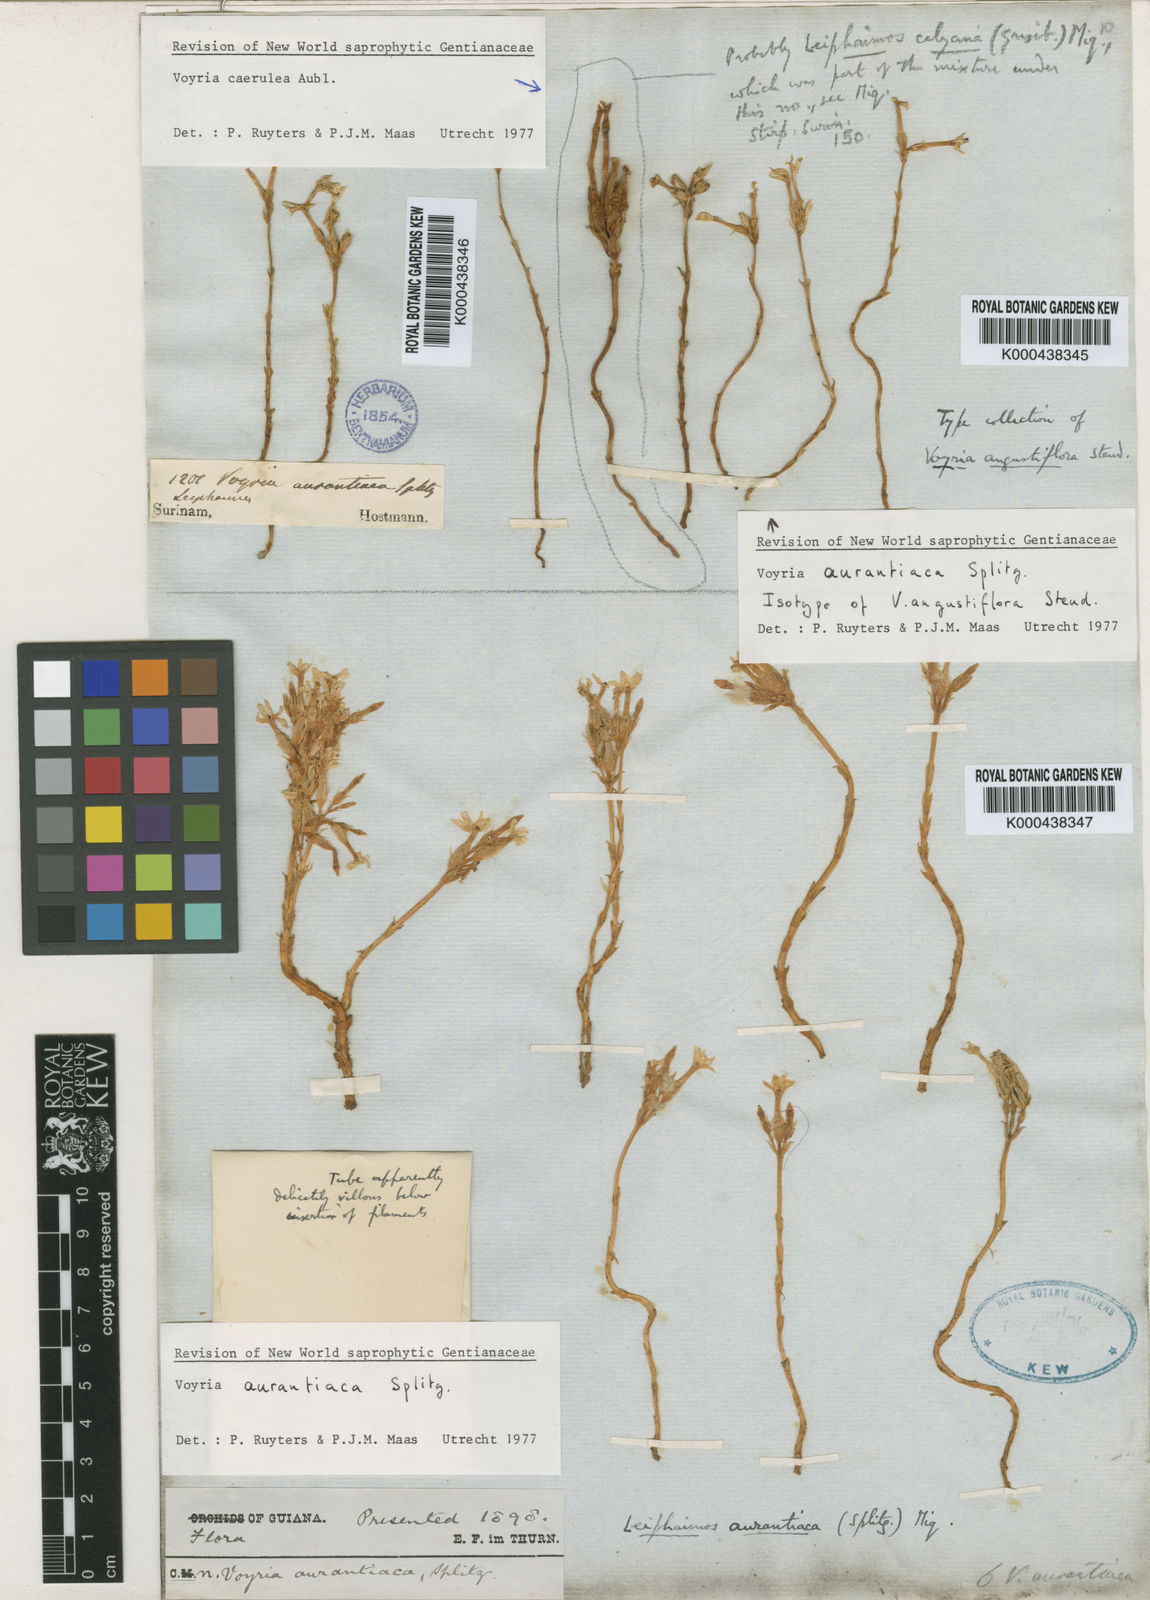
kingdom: Plantae
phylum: Tracheophyta
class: Magnoliopsida
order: Gentianales
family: Gentianaceae
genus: Voyria
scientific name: Voyria aurantiaca
